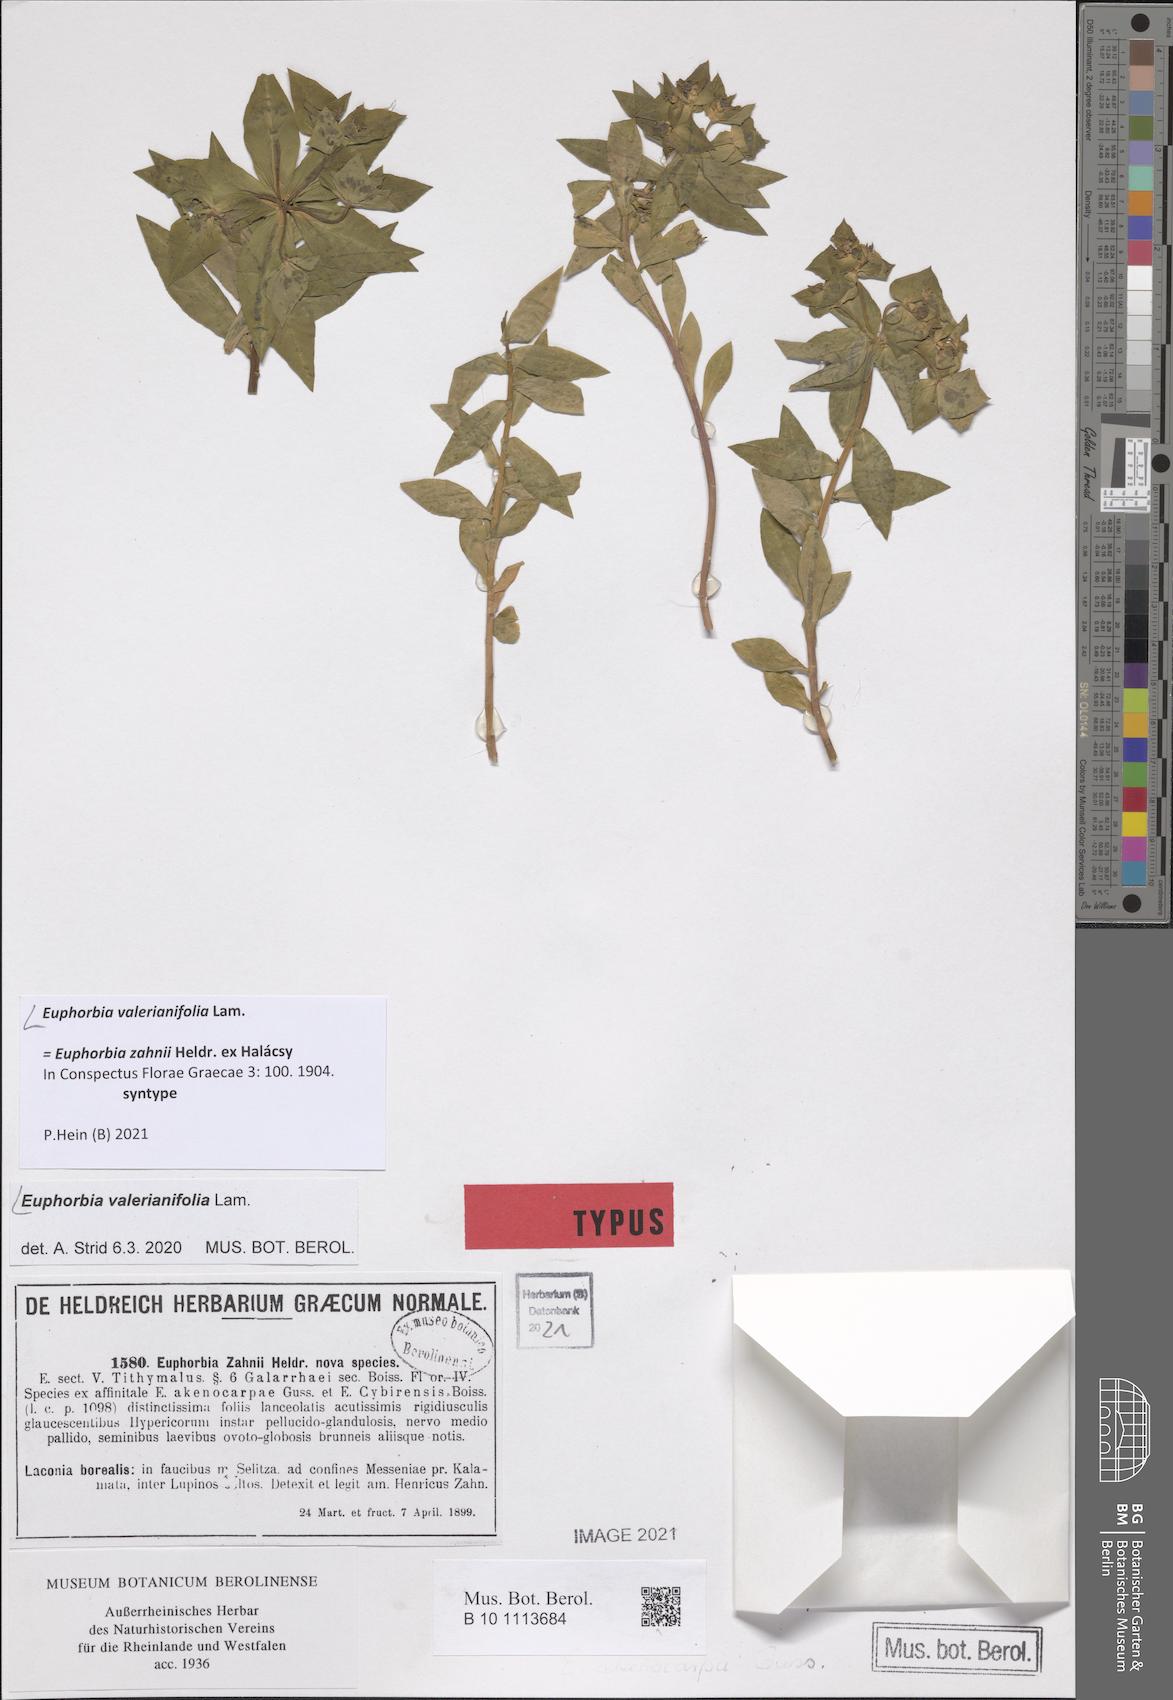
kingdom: Plantae
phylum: Tracheophyta
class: Magnoliopsida
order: Malpighiales
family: Euphorbiaceae
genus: Euphorbia
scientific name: Euphorbia valerianifolia
